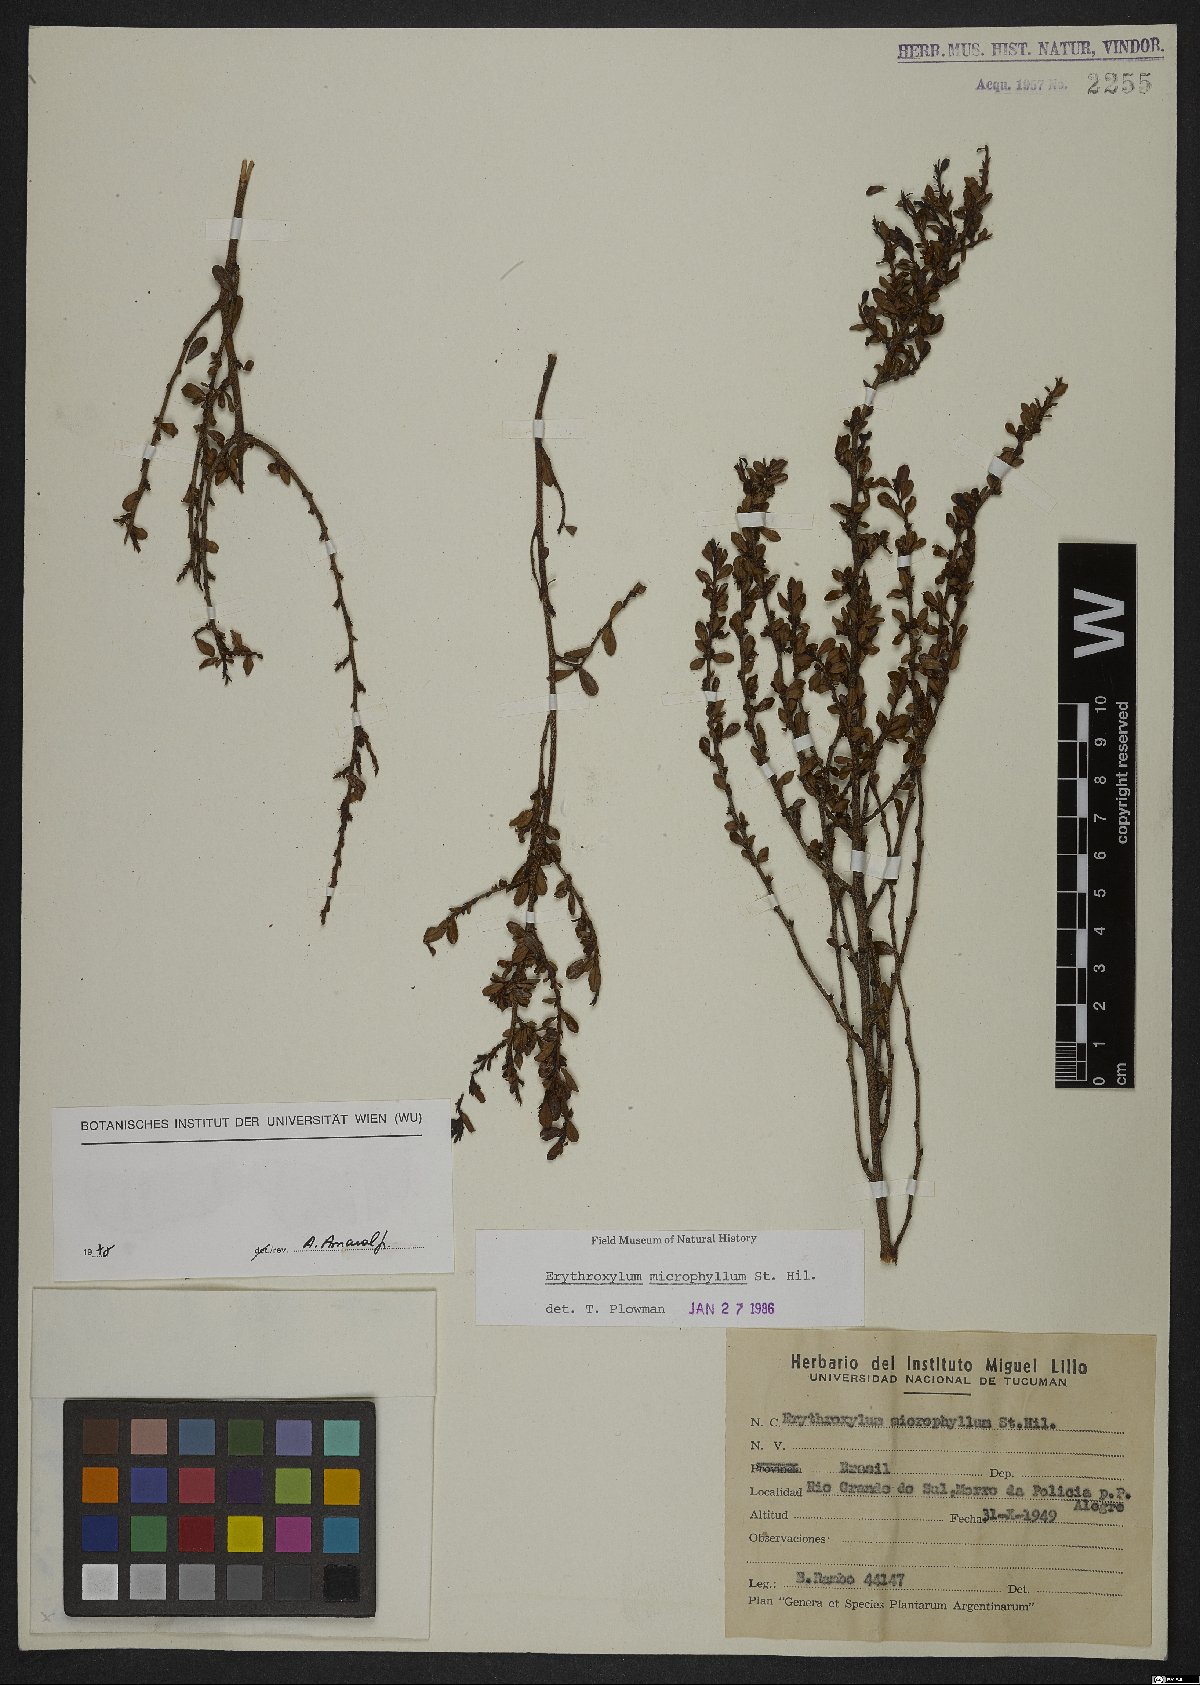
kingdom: Plantae
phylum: Tracheophyta
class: Magnoliopsida
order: Malpighiales
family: Erythroxylaceae
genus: Erythroxylum
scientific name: Erythroxylum microphyllum
